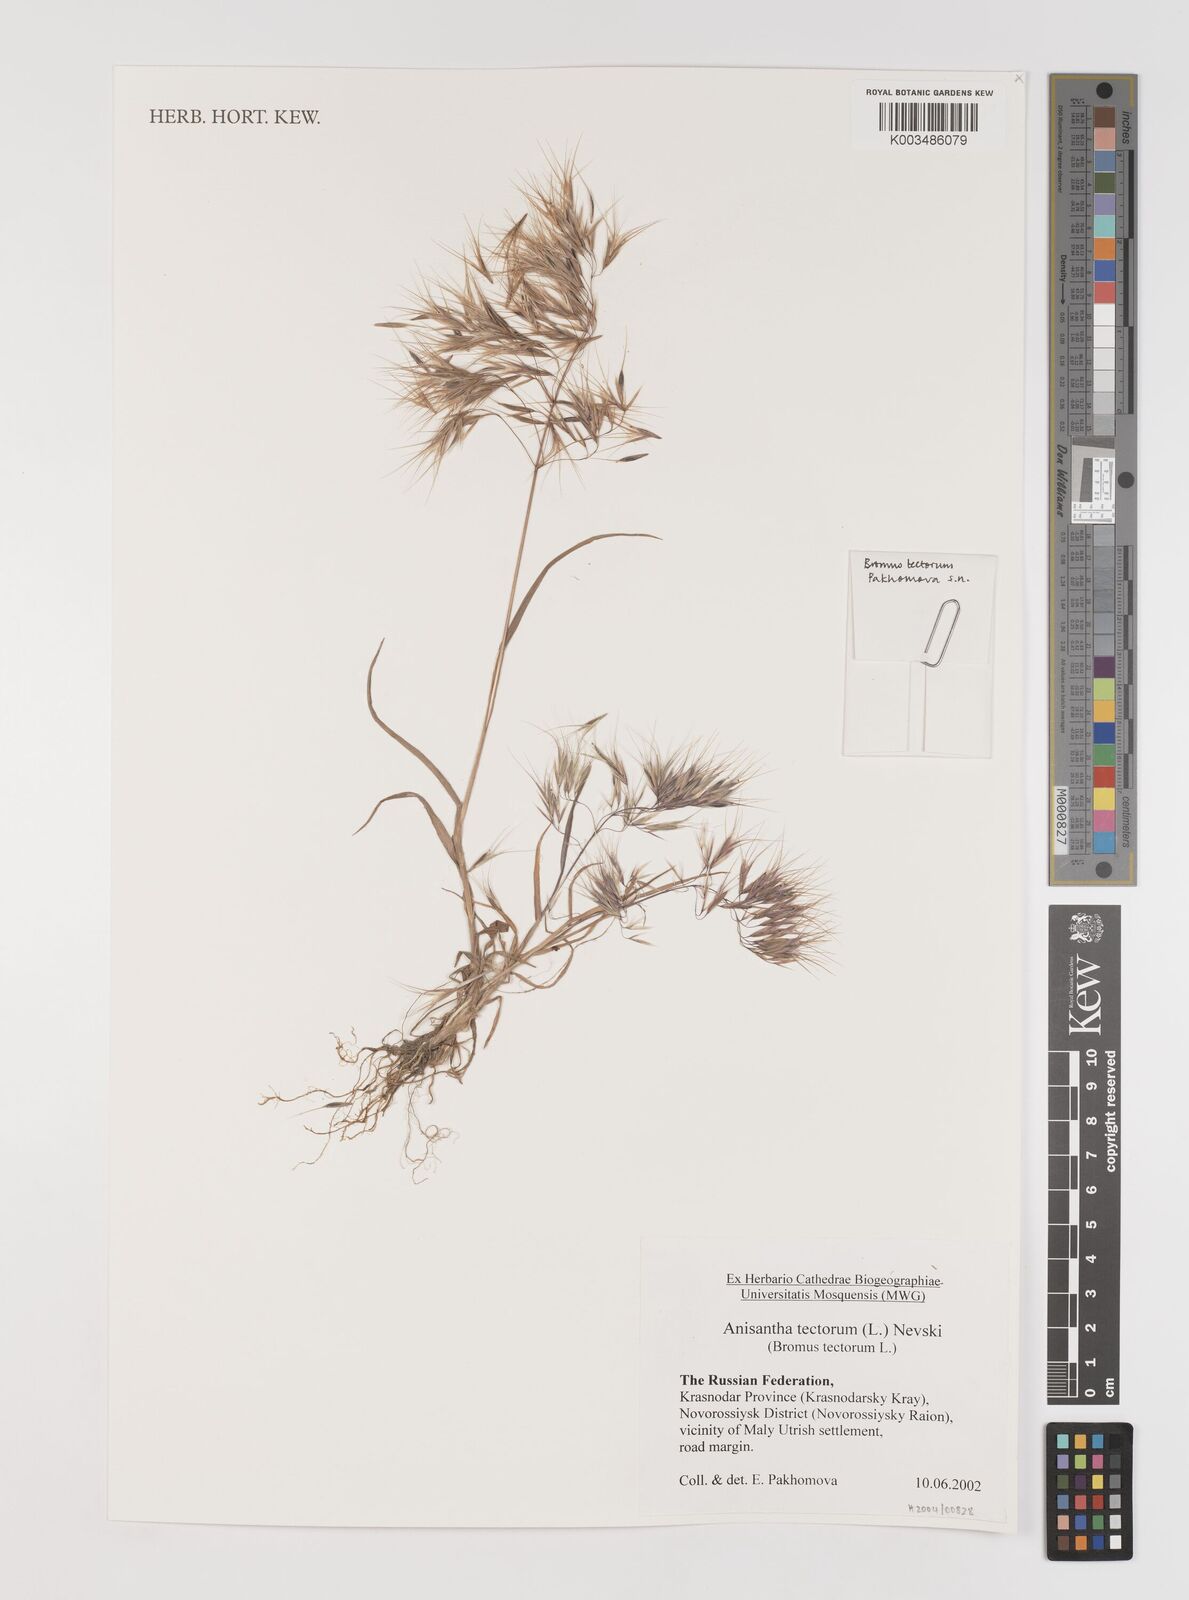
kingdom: Plantae
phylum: Tracheophyta
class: Liliopsida
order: Poales
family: Poaceae
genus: Bromus
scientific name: Bromus tectorum
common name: Cheatgrass
